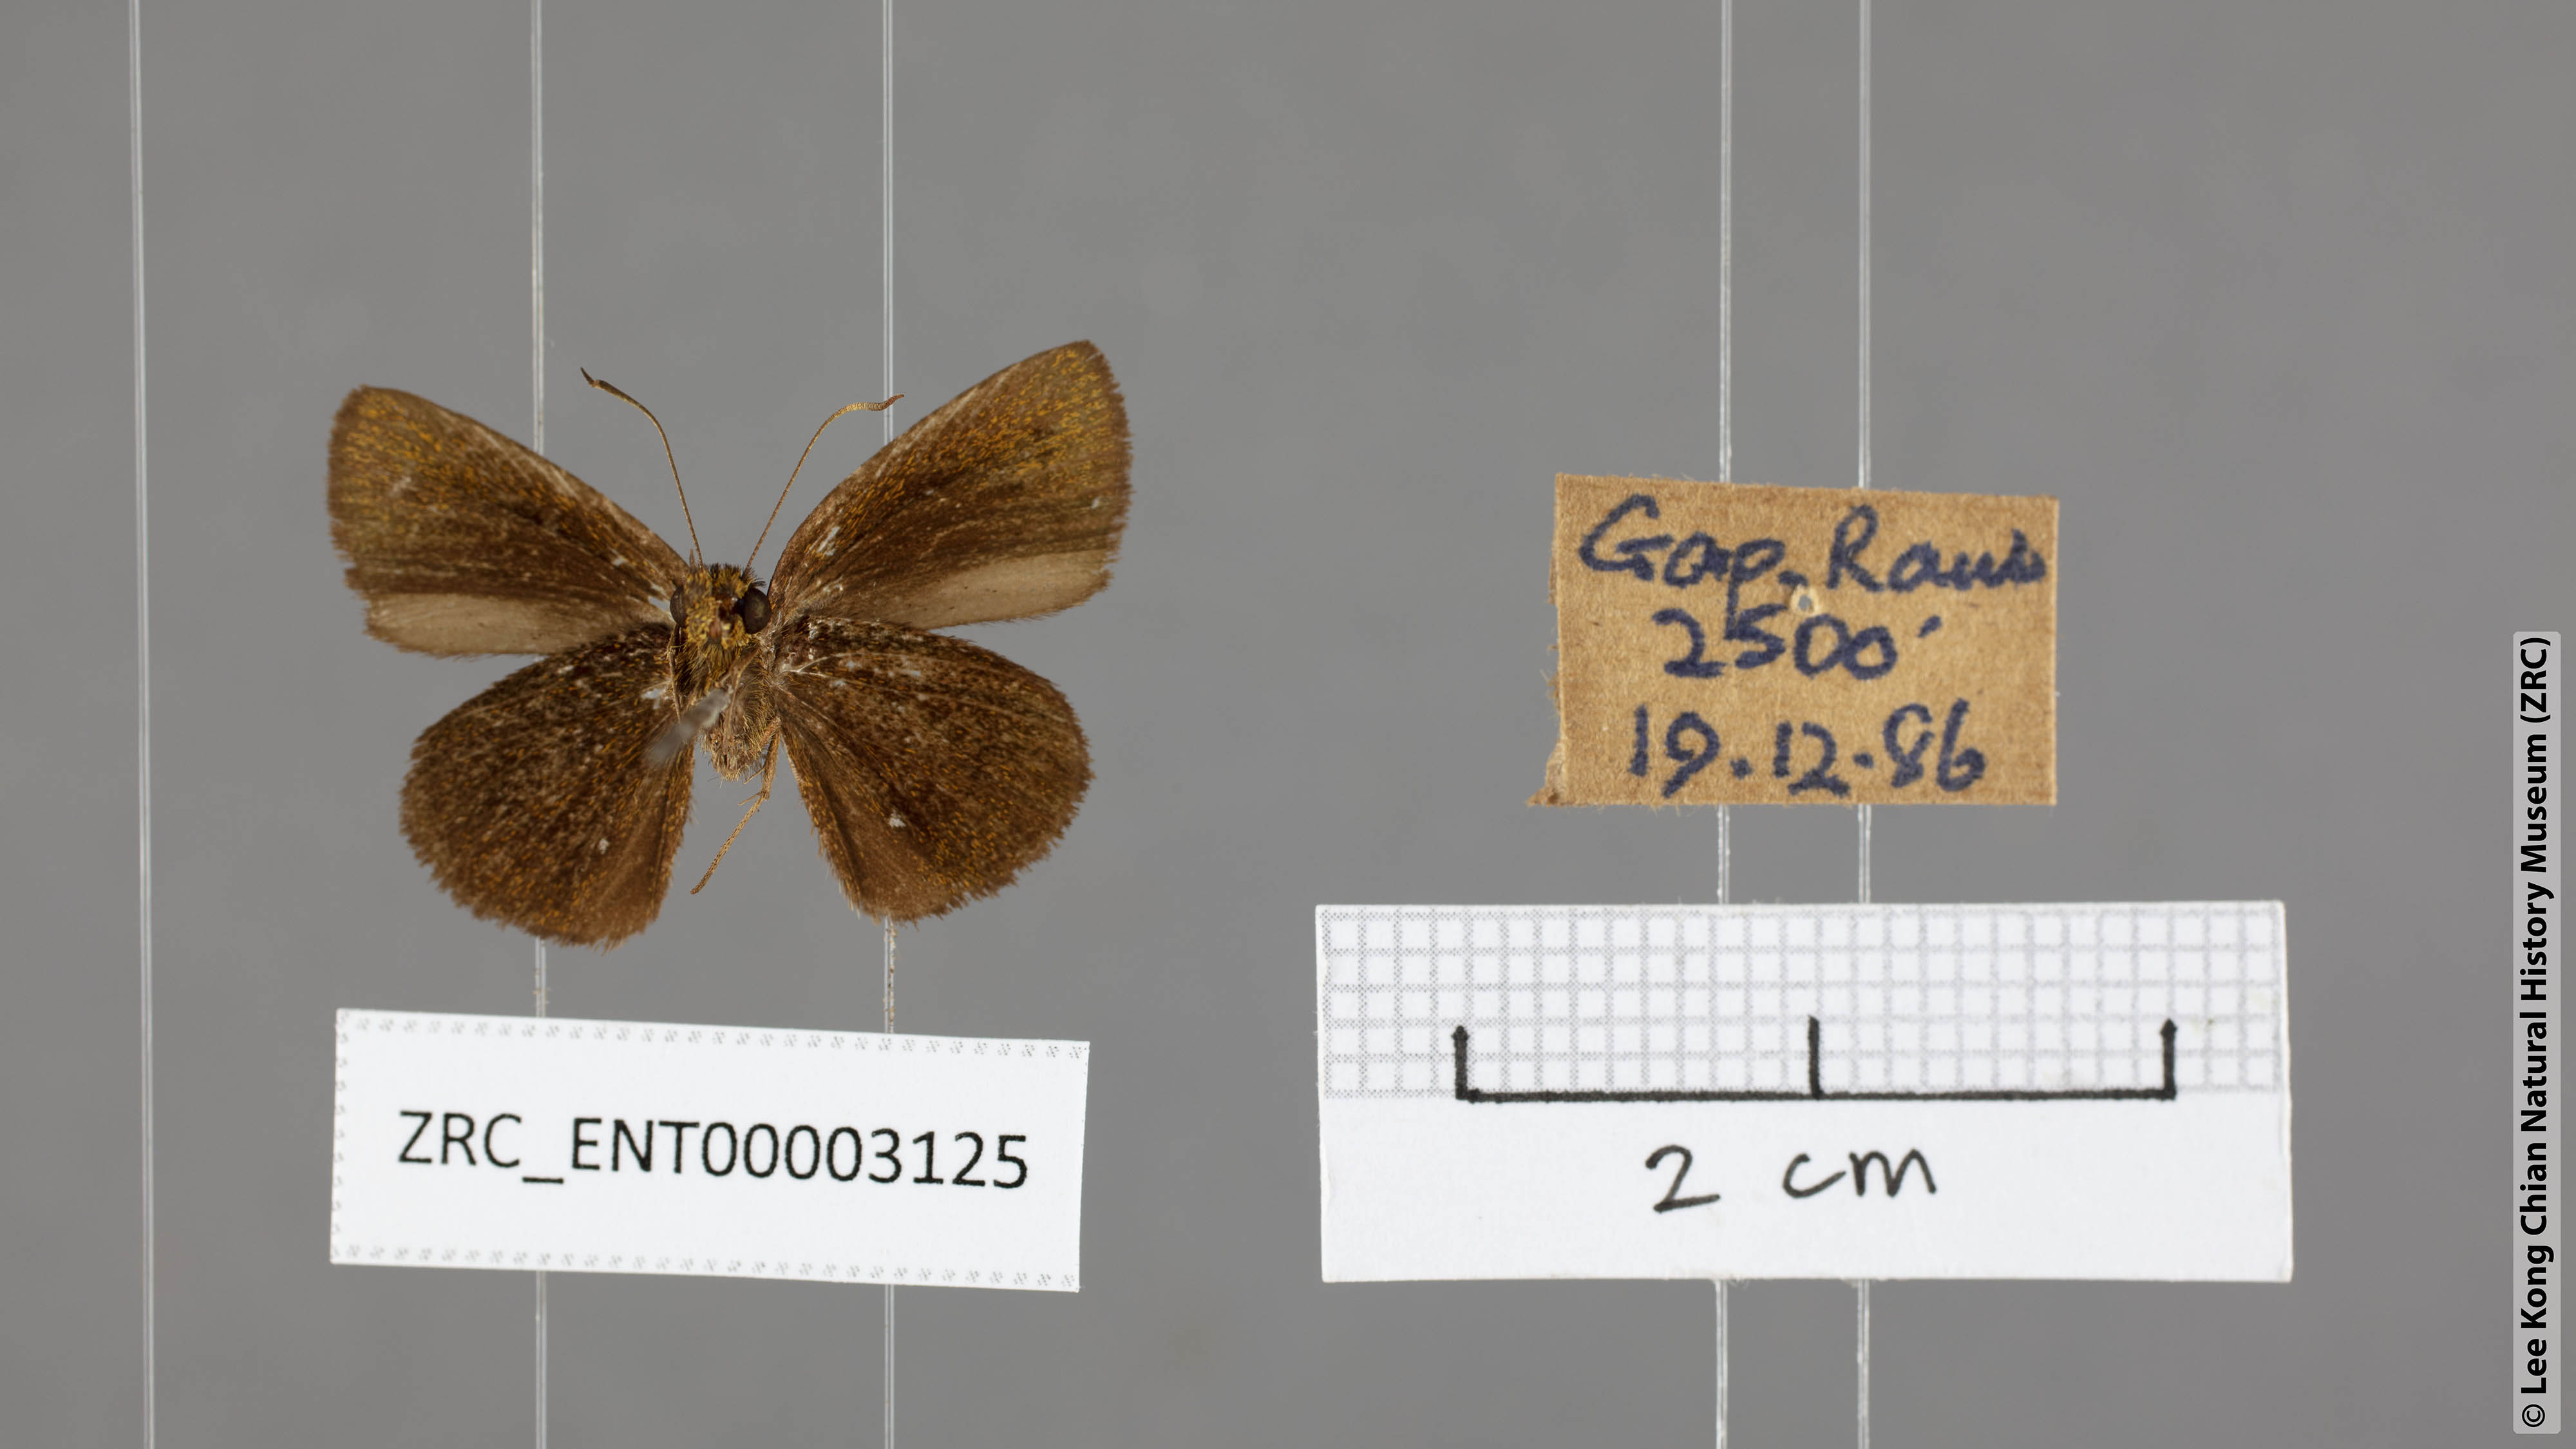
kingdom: Animalia
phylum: Arthropoda
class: Insecta
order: Lepidoptera
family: Hesperiidae
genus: Arnetta
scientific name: Arnetta verones
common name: Sumatran bob
